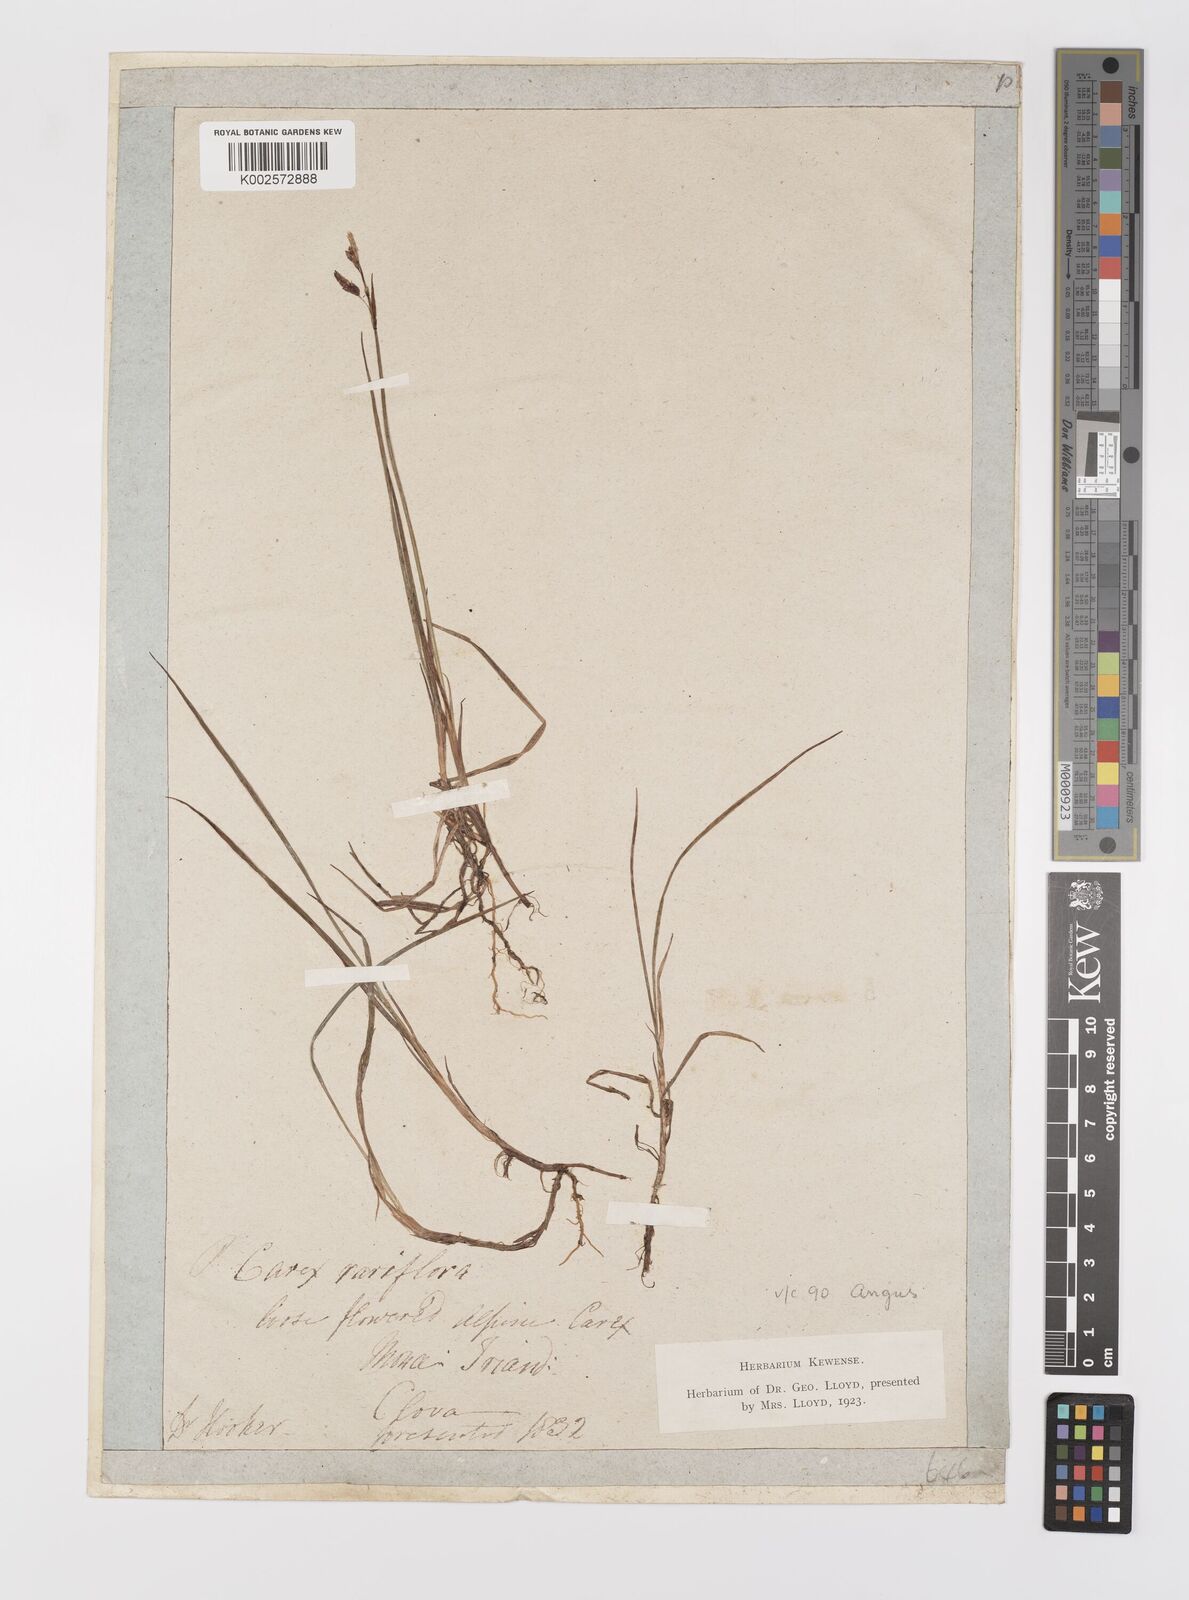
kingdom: Plantae
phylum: Tracheophyta
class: Liliopsida
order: Poales
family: Cyperaceae
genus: Carex
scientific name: Carex rariflora
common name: Loose-flowered alpine sedge
